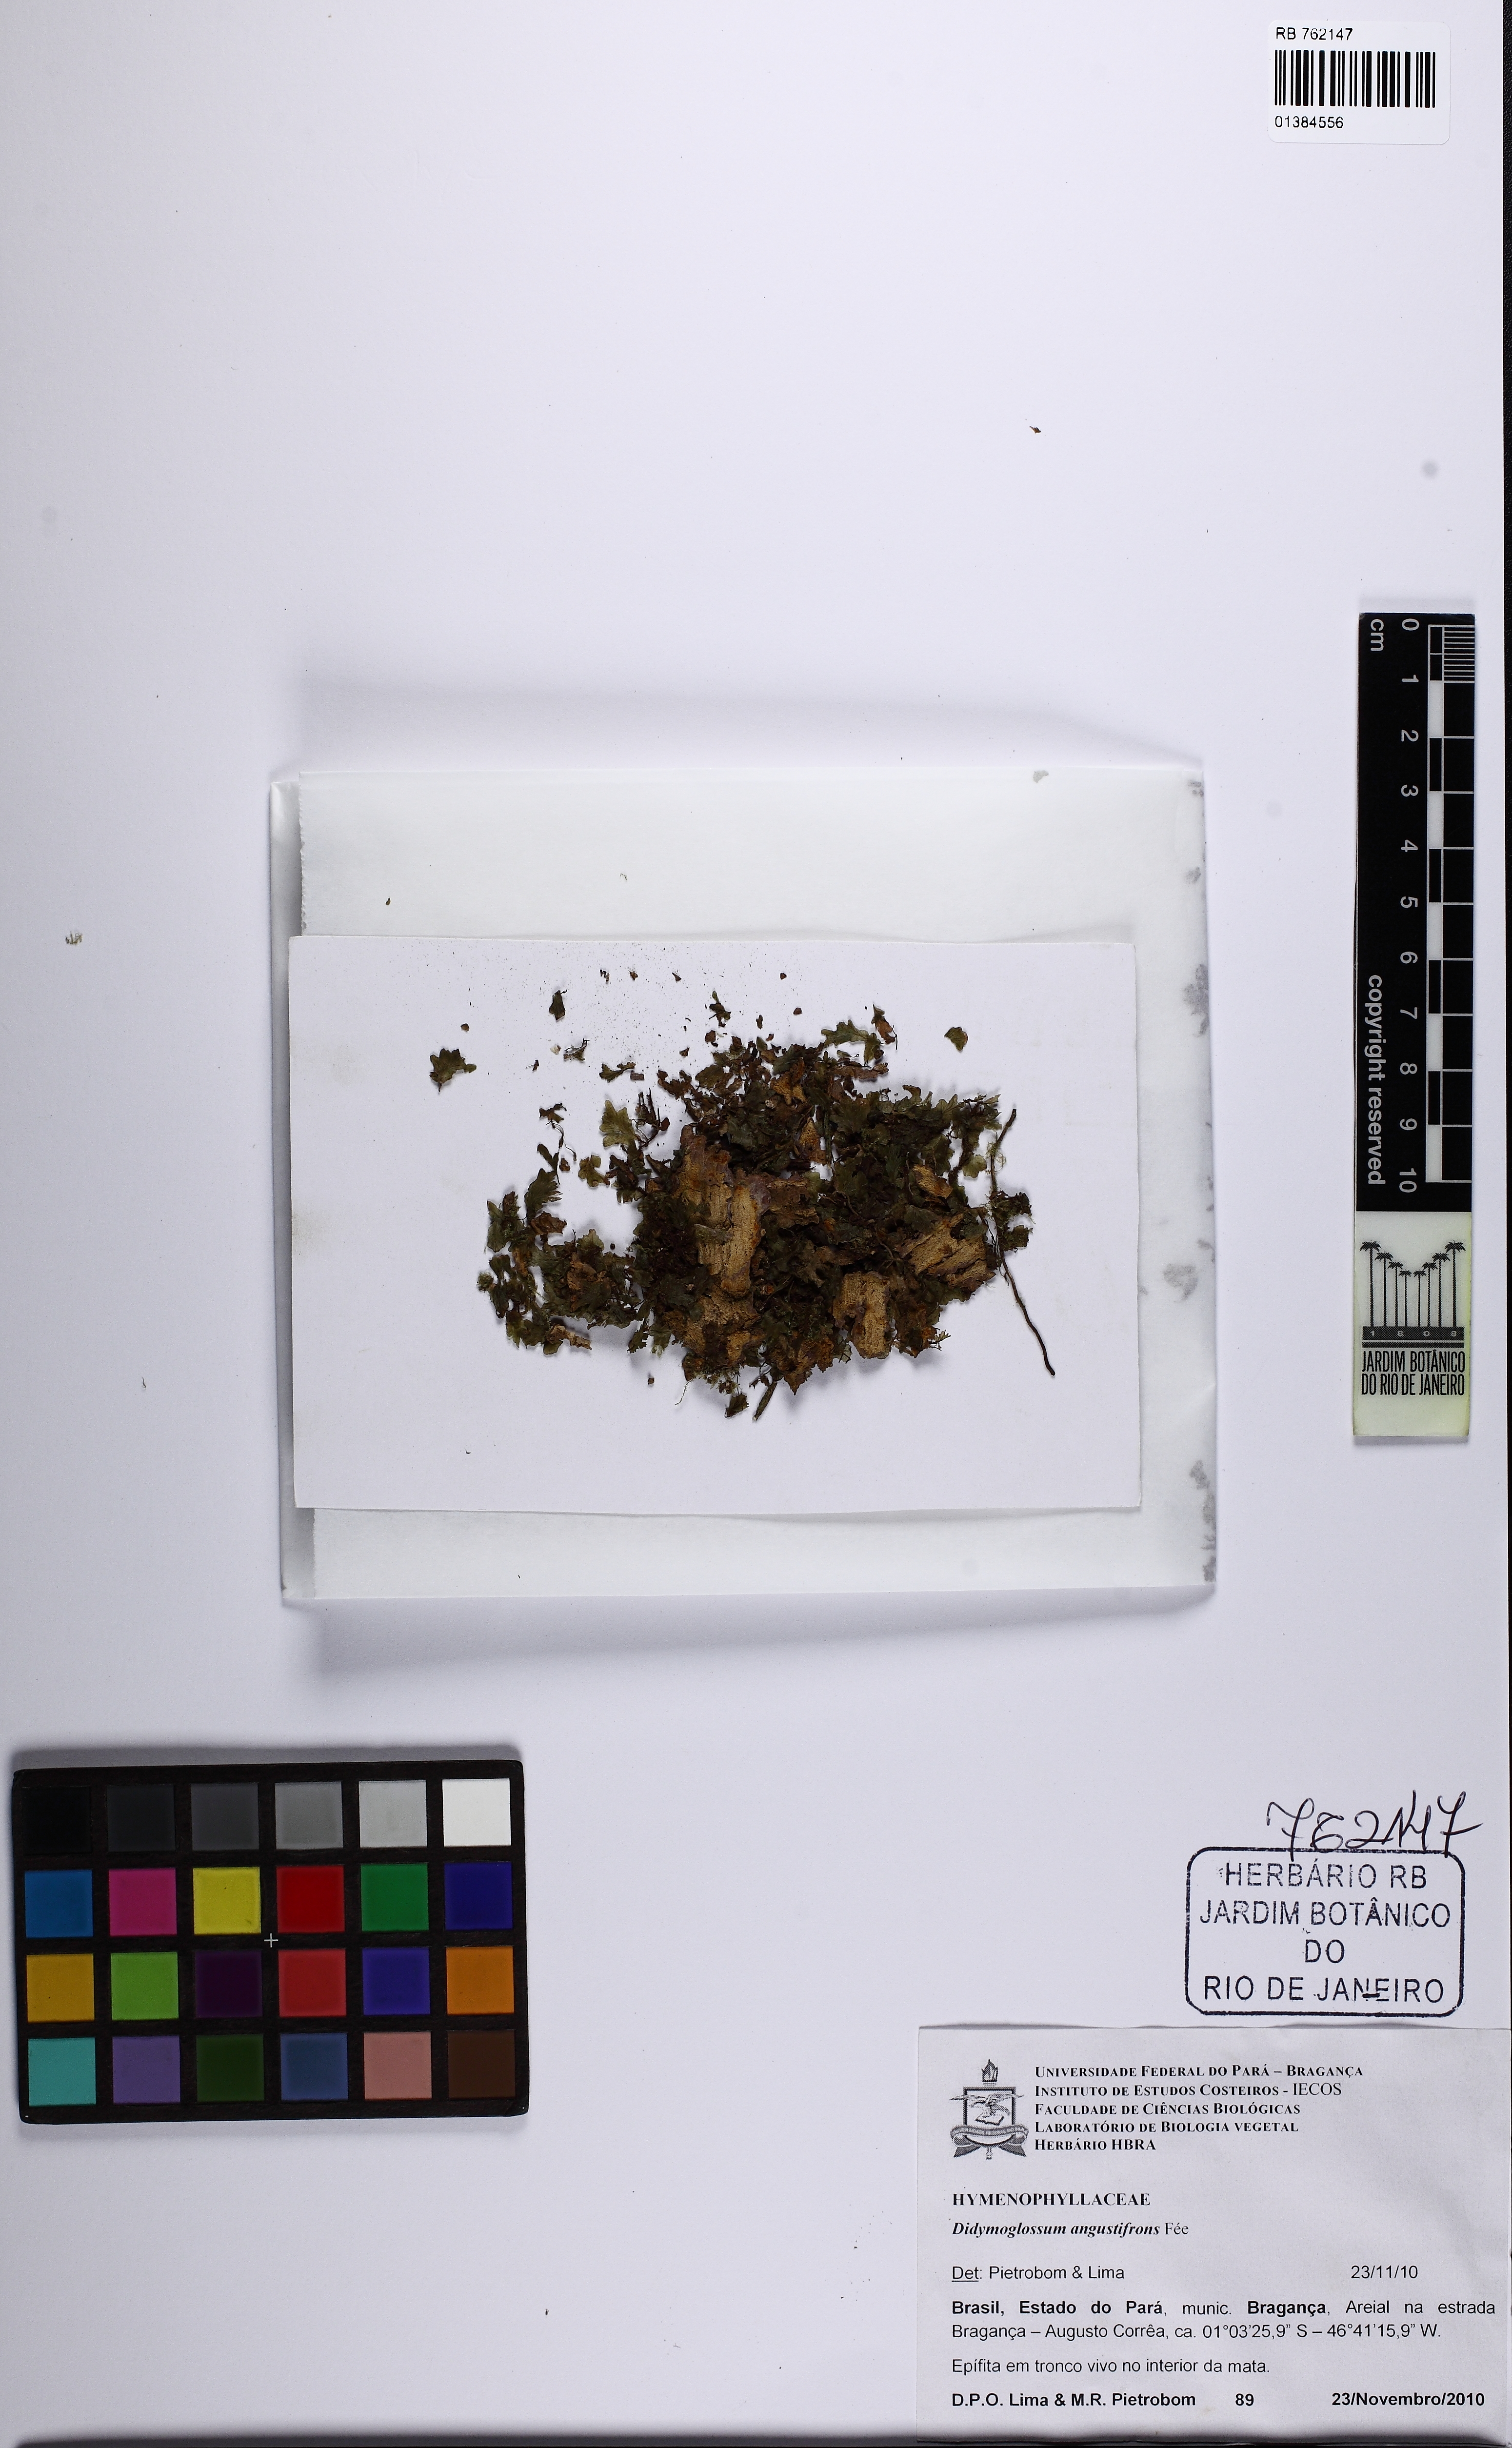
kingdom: Plantae
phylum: Tracheophyta
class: Polypodiopsida
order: Hymenophyllales
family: Hymenophyllaceae
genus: Didymoglossum
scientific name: Didymoglossum angustifrons
